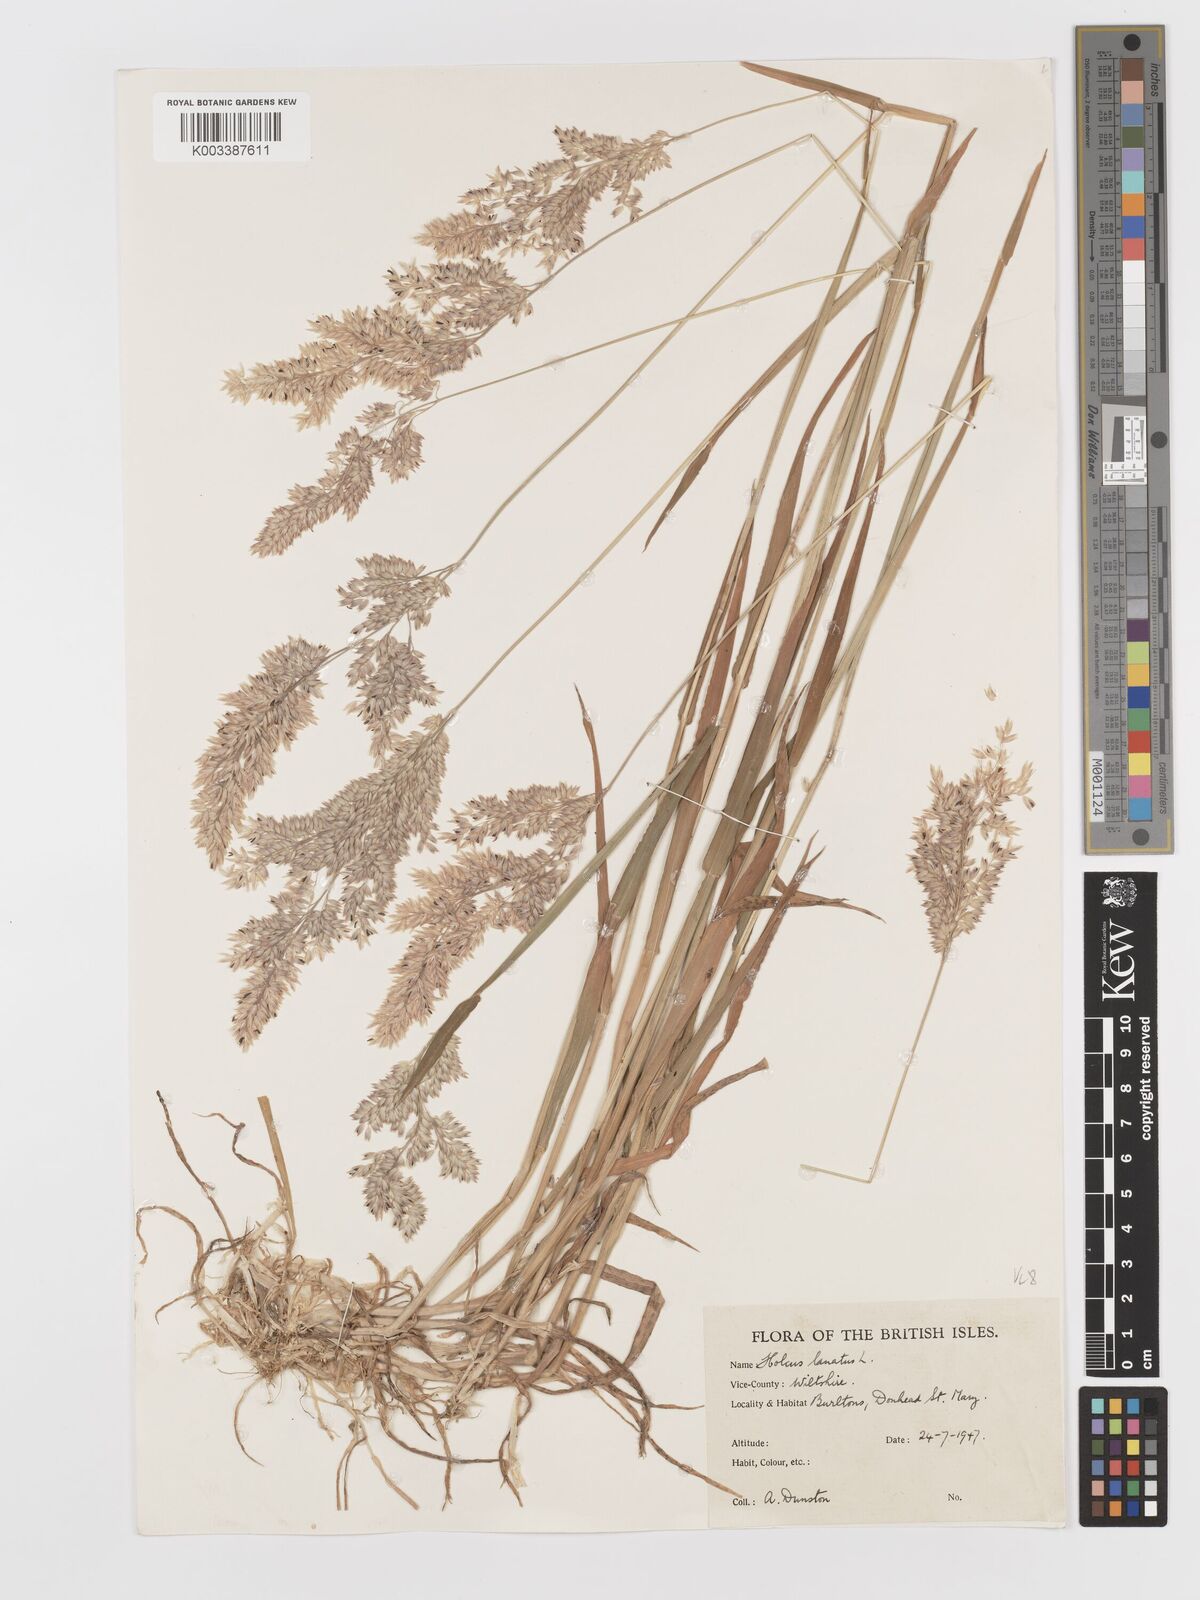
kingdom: Plantae
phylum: Tracheophyta
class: Liliopsida
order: Poales
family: Poaceae
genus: Holcus
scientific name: Holcus lanatus
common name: Yorkshire-fog
